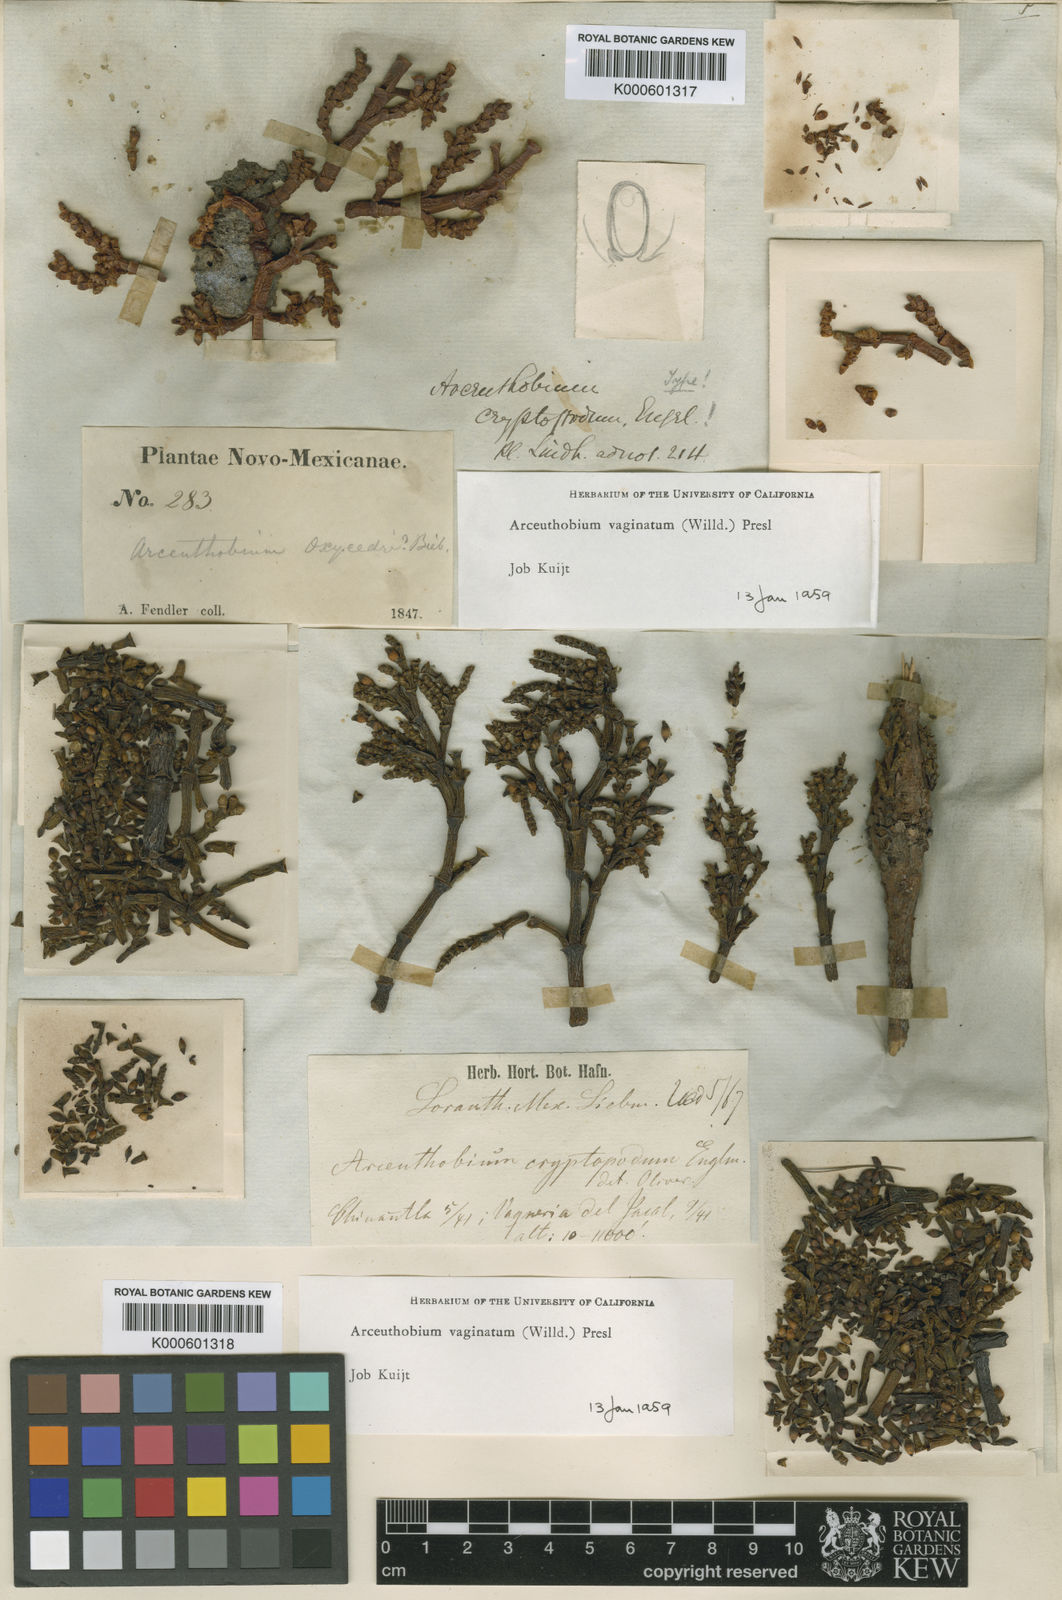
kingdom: Plantae
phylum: Tracheophyta
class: Magnoliopsida
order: Santalales
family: Viscaceae
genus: Arceuthobium
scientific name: Arceuthobium vaginatum
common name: Southwestern dwarf-mistletoe
